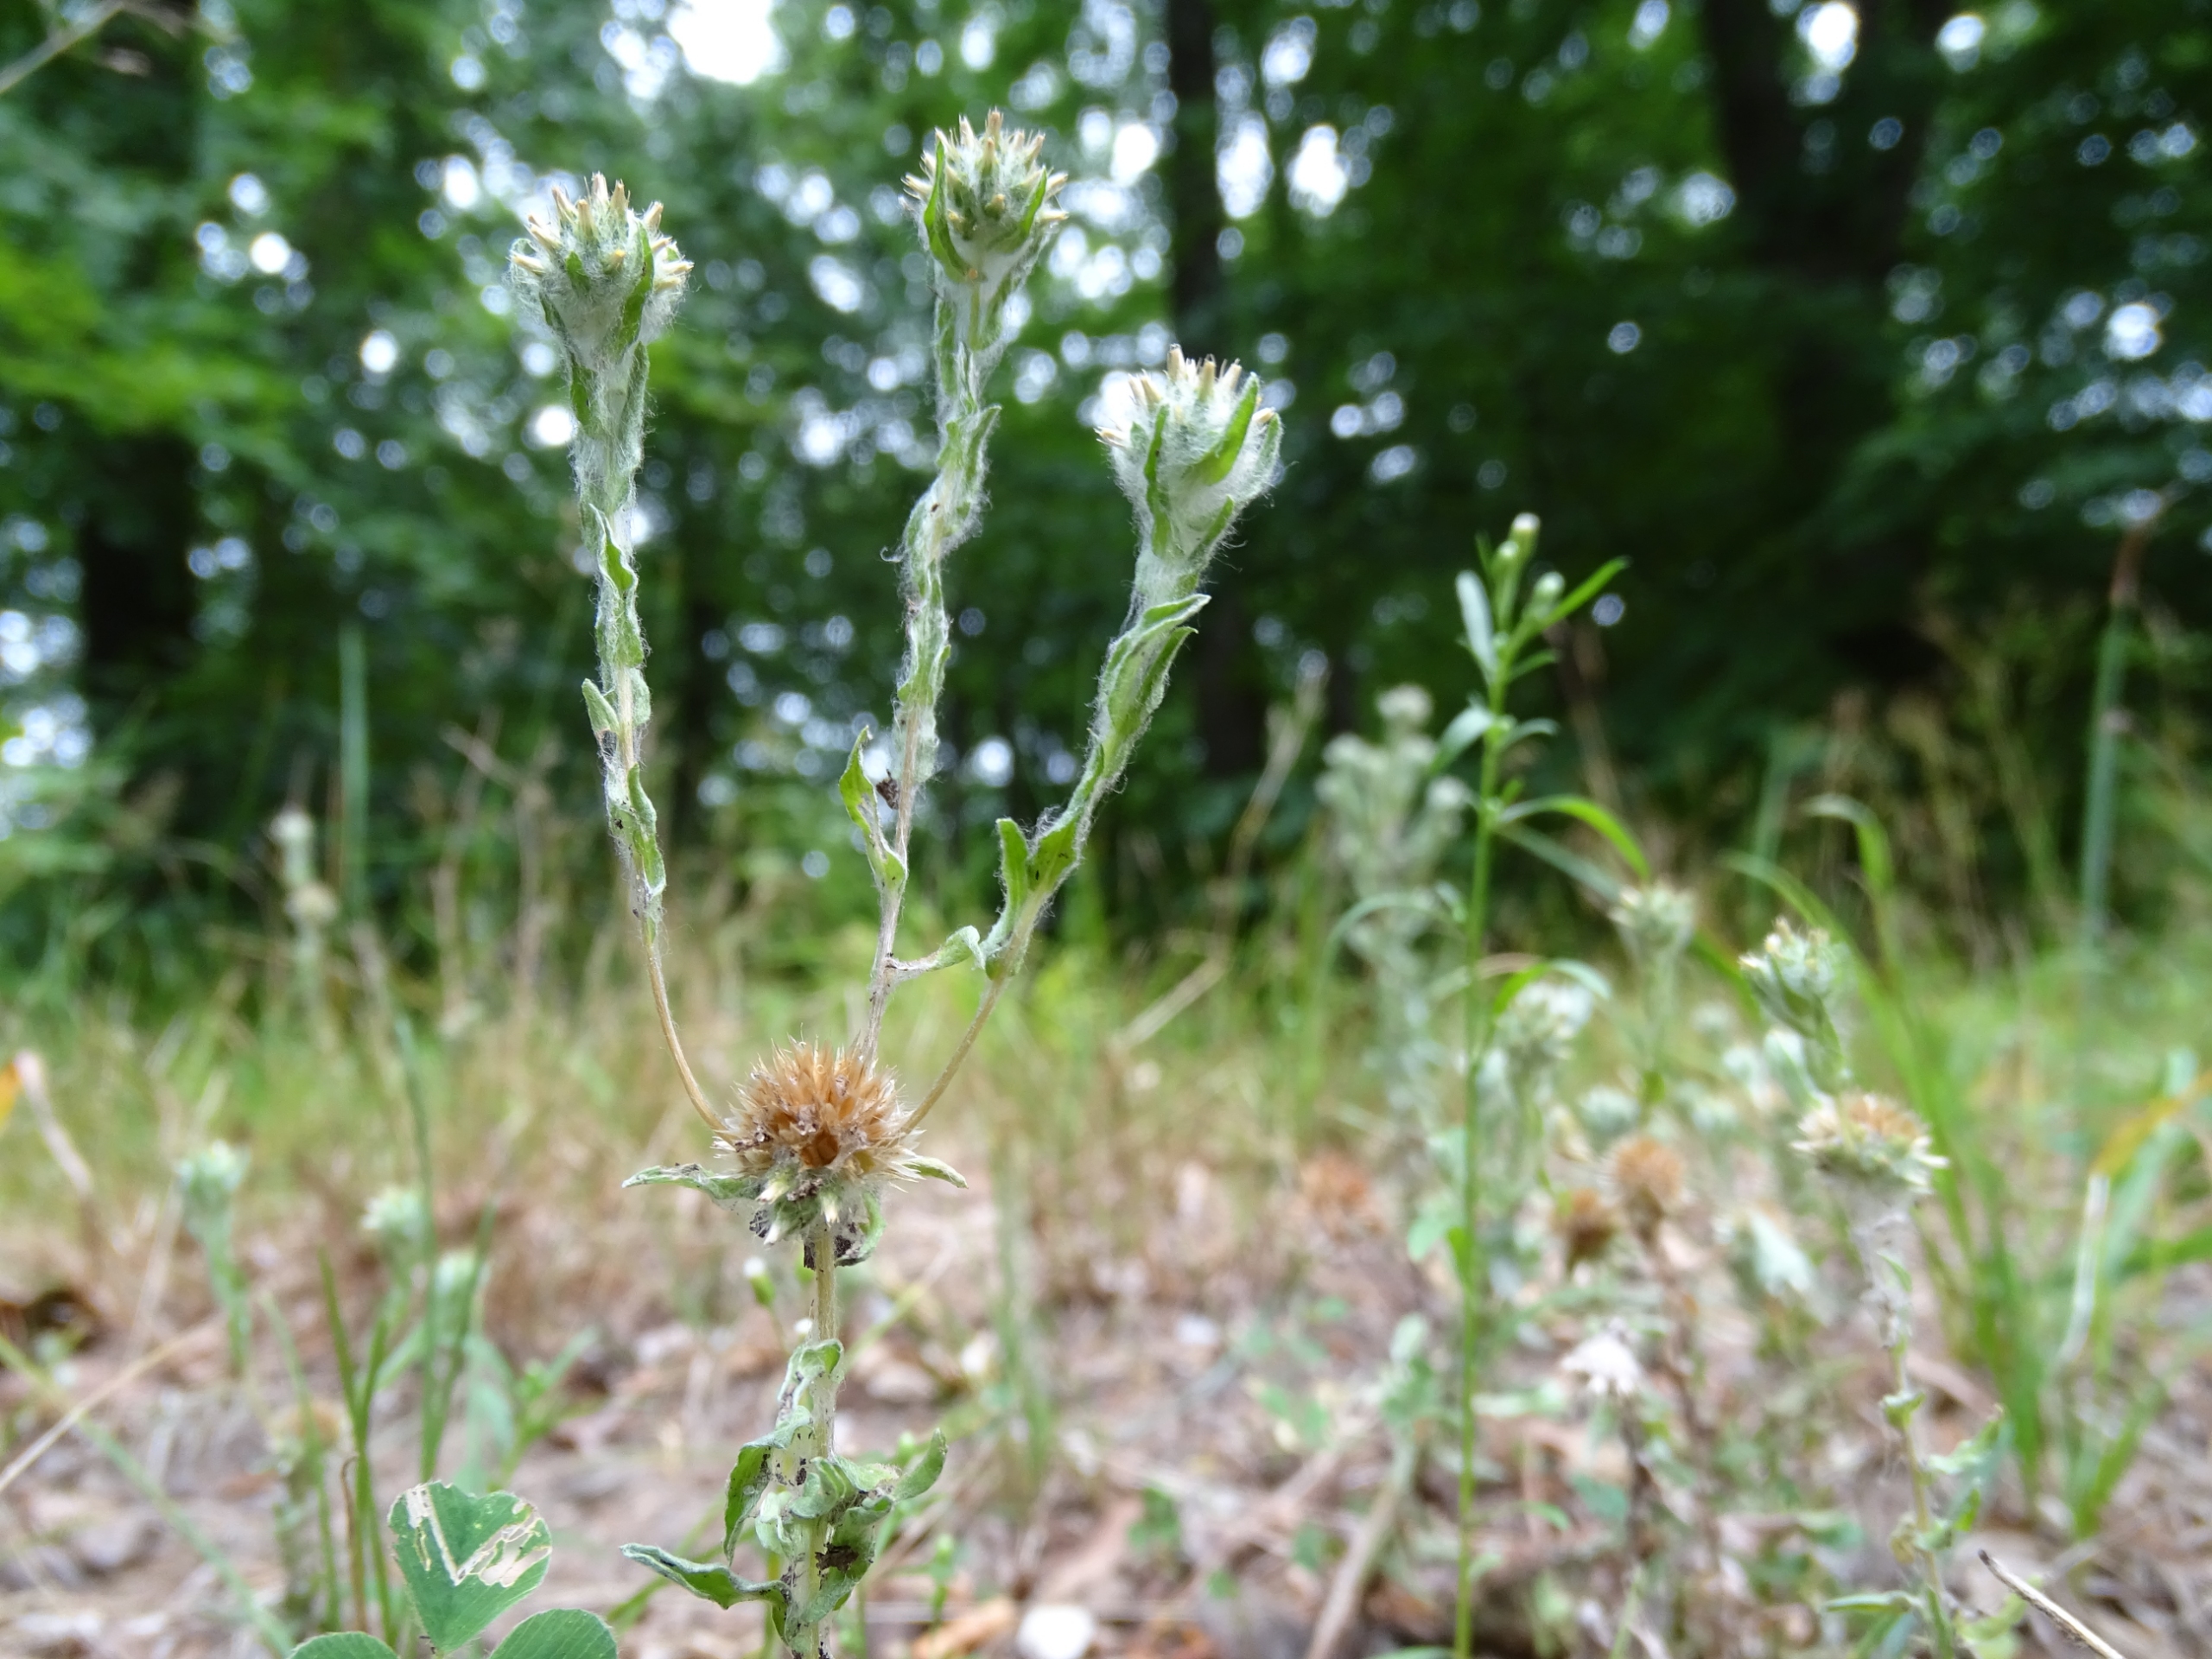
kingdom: Plantae
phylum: Tracheophyta
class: Magnoliopsida
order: Asterales
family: Asteraceae
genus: Filago
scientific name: Filago germanica
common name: Kugle-museurt
